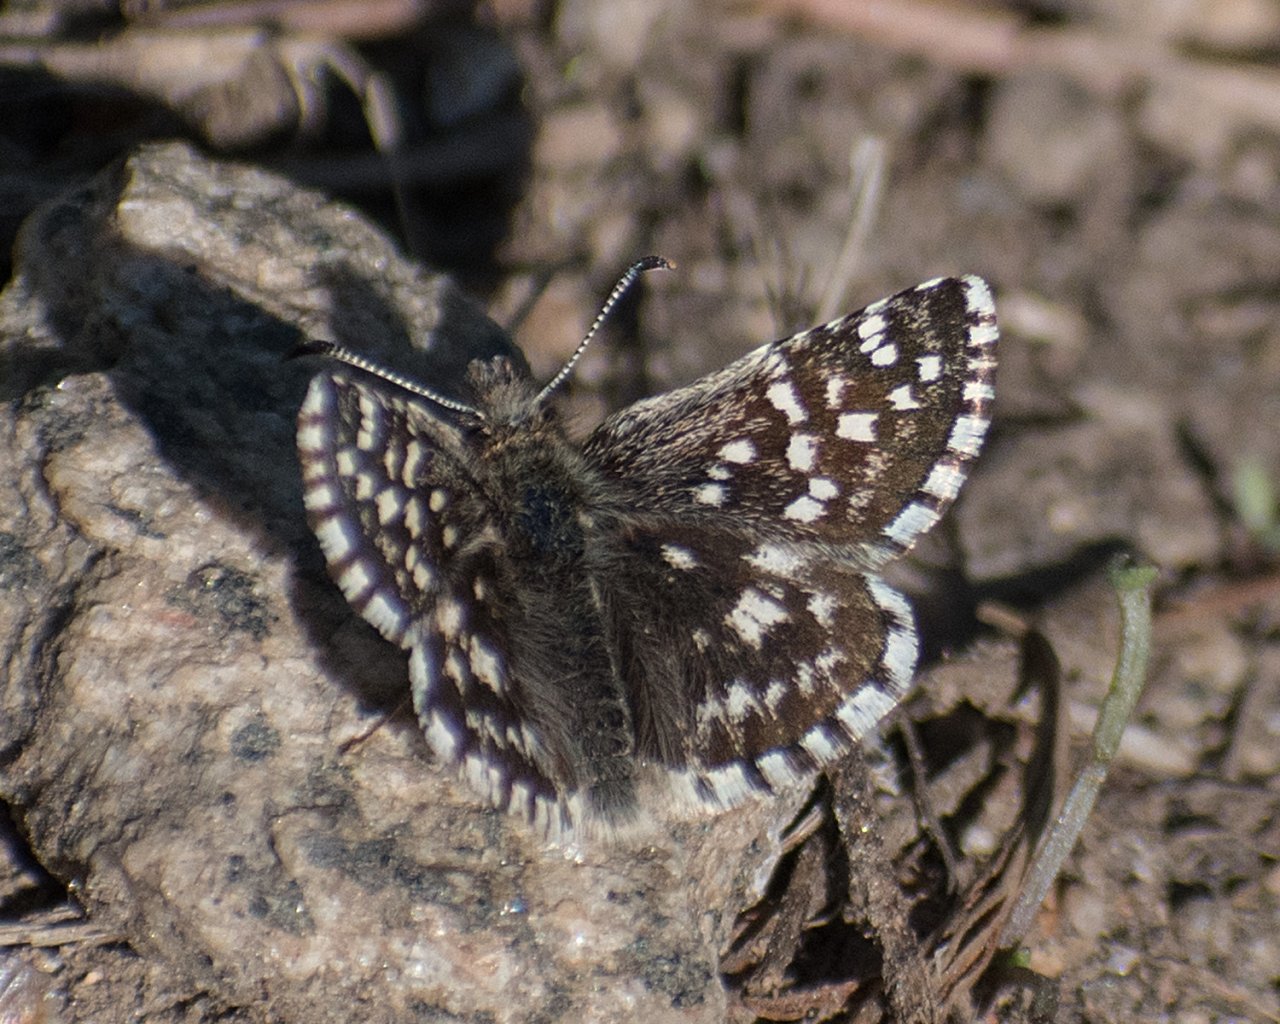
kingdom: Animalia
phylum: Arthropoda
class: Insecta
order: Lepidoptera
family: Hesperiidae
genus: Pyrgus
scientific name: Pyrgus ruralis
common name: Two-banded Checkered-Skipper
